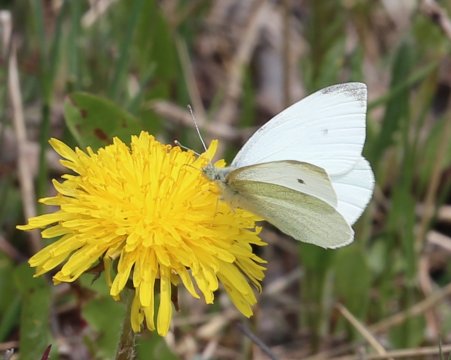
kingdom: Animalia
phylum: Arthropoda
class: Insecta
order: Lepidoptera
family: Pieridae
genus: Pieris
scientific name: Pieris rapae
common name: Cabbage White
